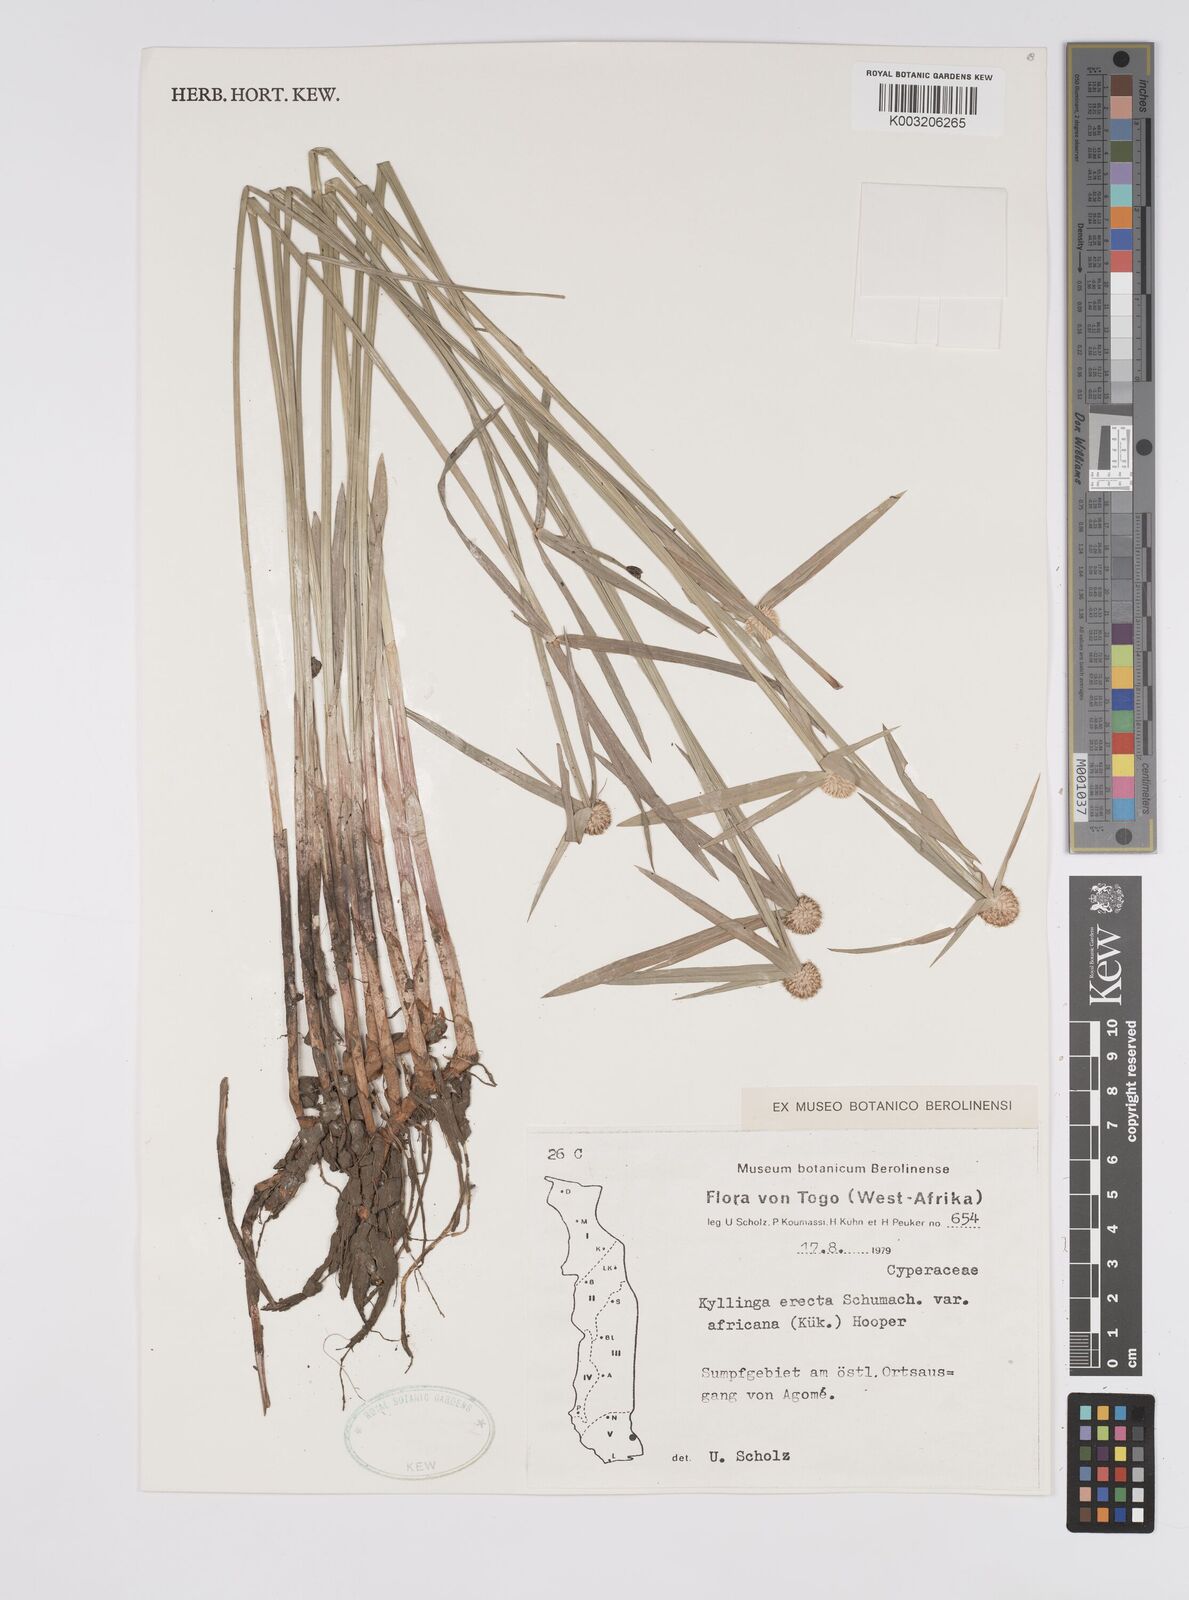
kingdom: Plantae
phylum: Tracheophyta
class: Liliopsida
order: Poales
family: Cyperaceae
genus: Cyperus
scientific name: Cyperus
